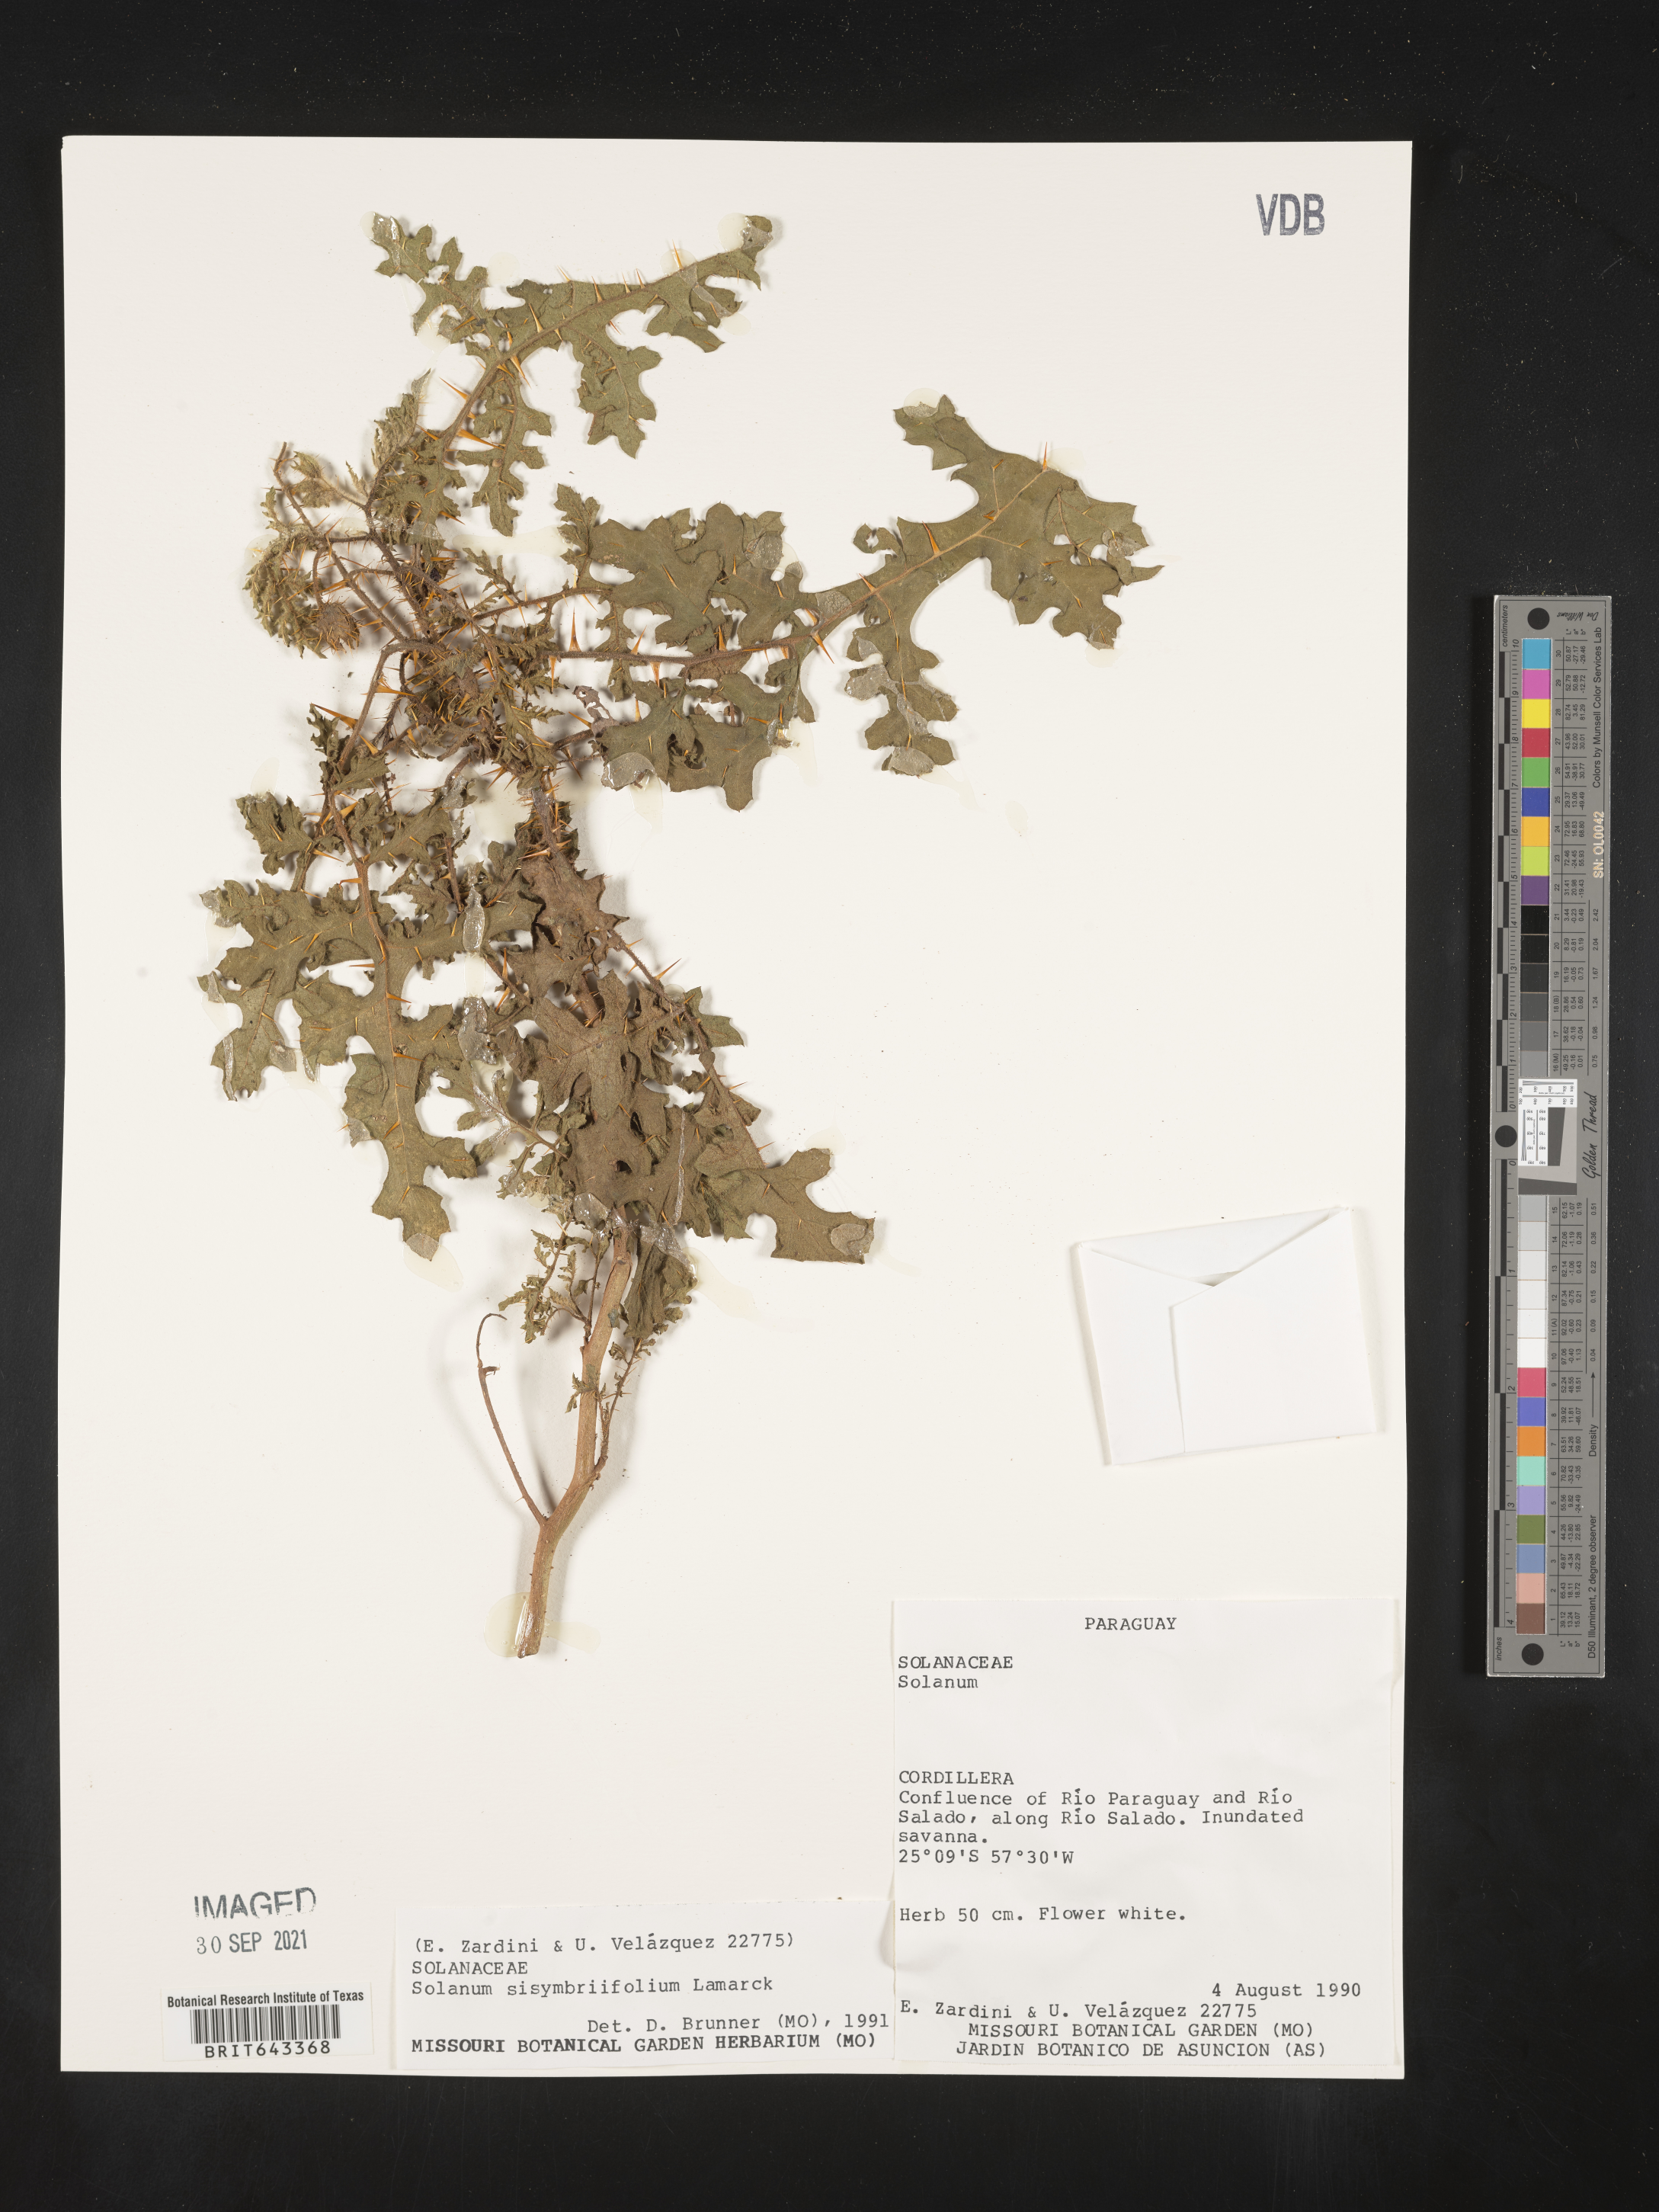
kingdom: Plantae
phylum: Tracheophyta
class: Magnoliopsida
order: Solanales
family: Solanaceae
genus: Solanum
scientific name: Solanum
